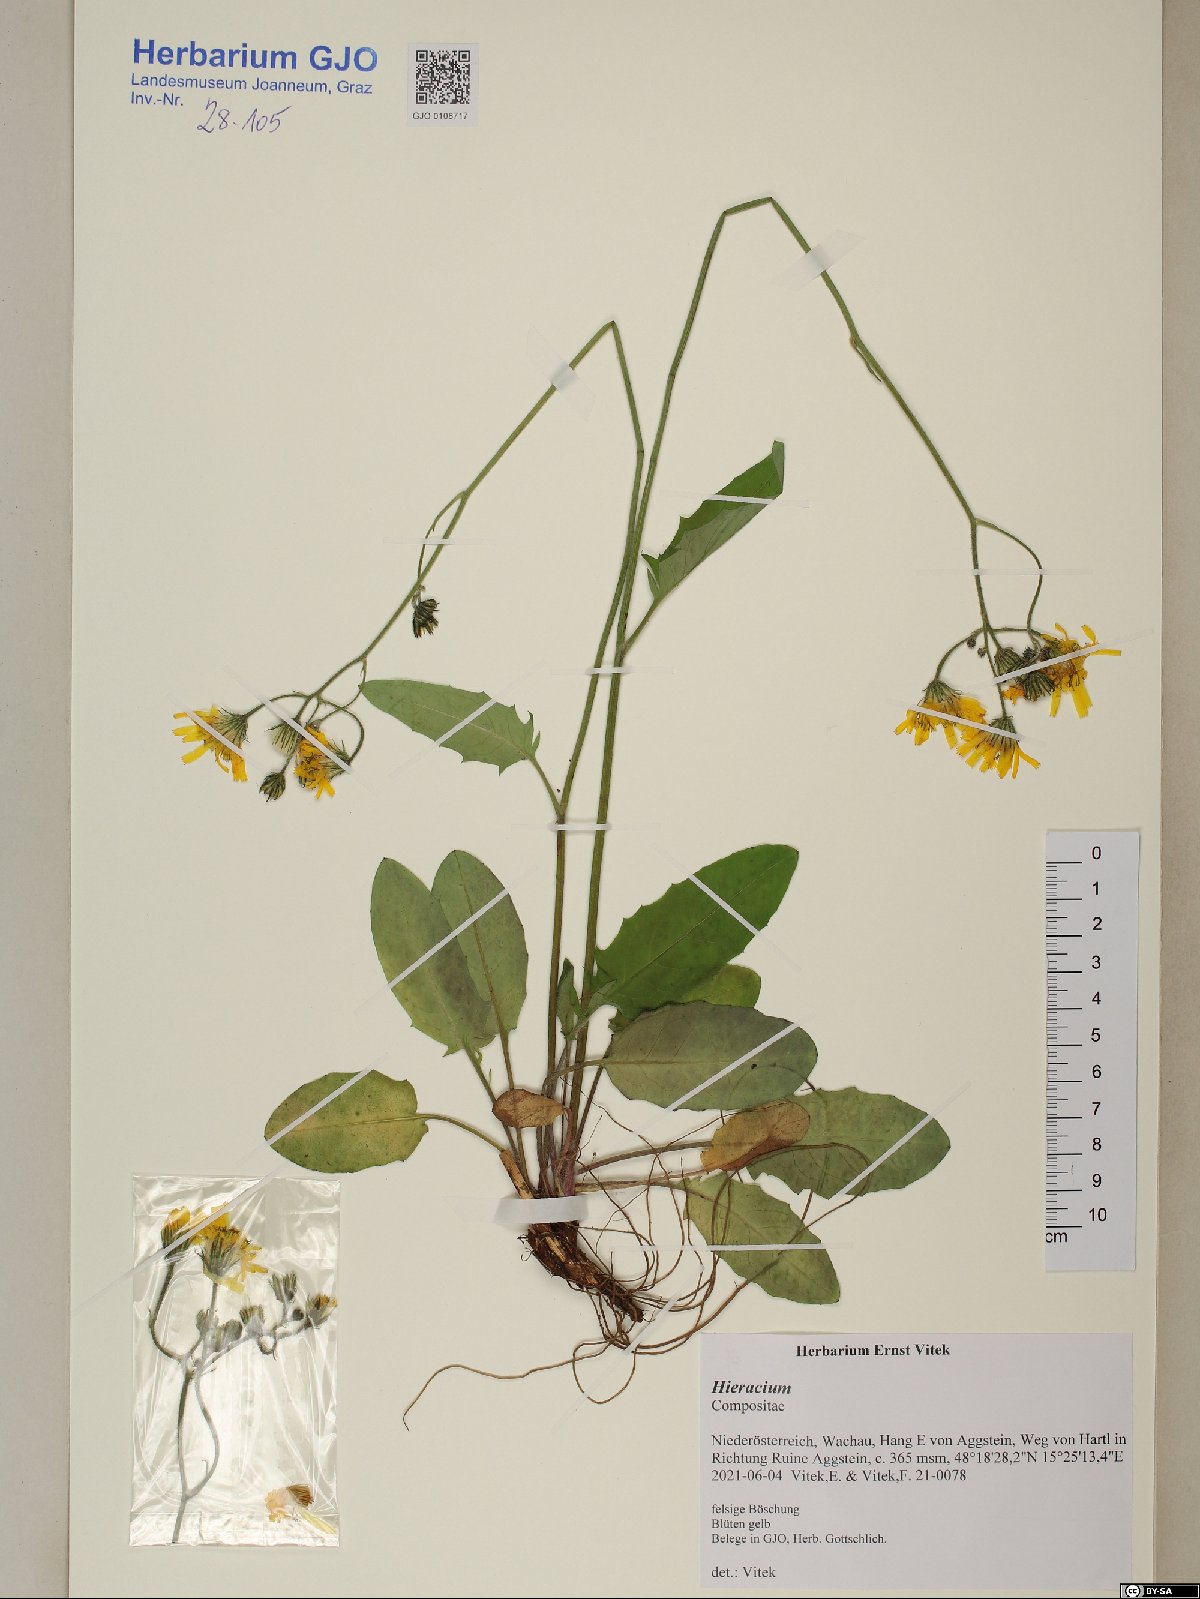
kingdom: Plantae
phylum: Tracheophyta
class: Magnoliopsida
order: Asterales
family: Asteraceae
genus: Hieracium
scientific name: Hieracium
